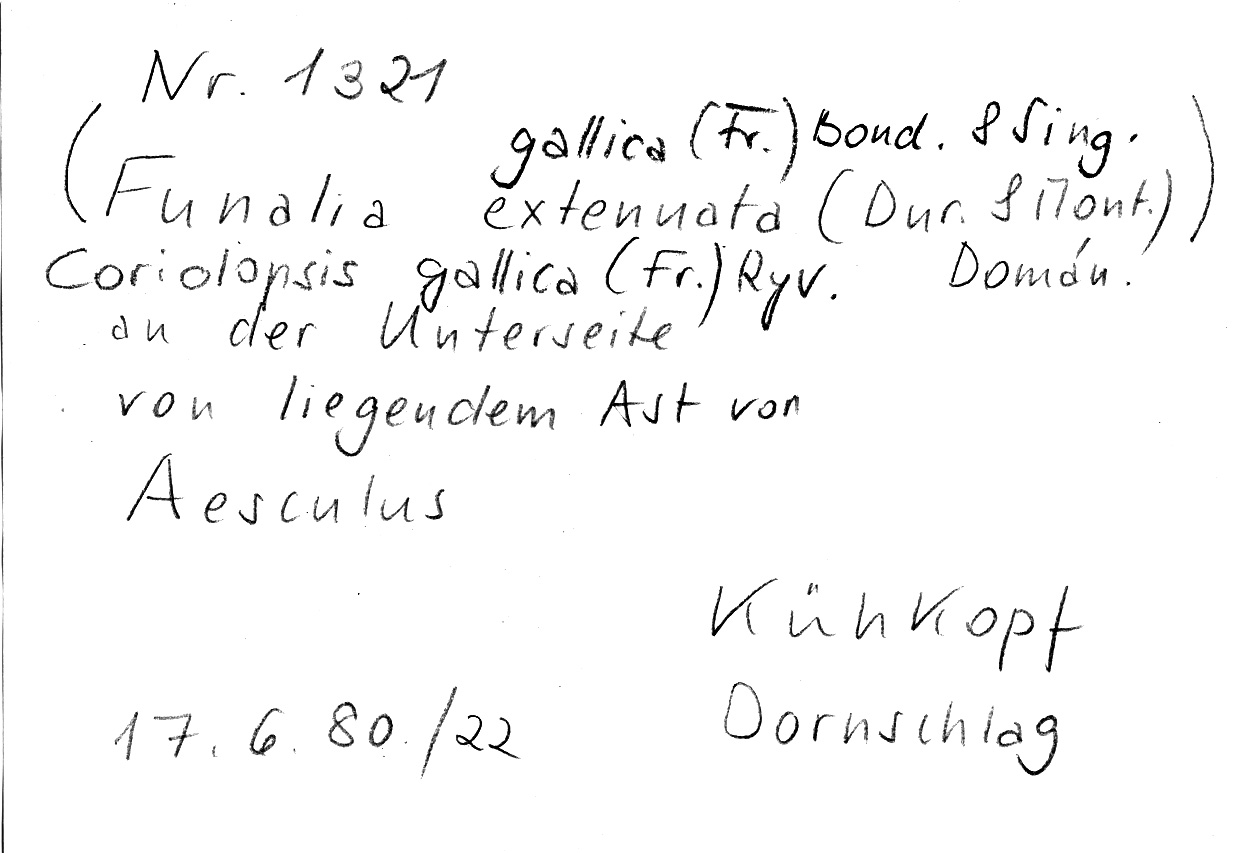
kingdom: Plantae
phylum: Tracheophyta
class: Magnoliopsida
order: Sapindales
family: Sapindaceae
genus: Aesculus
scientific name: Aesculus
